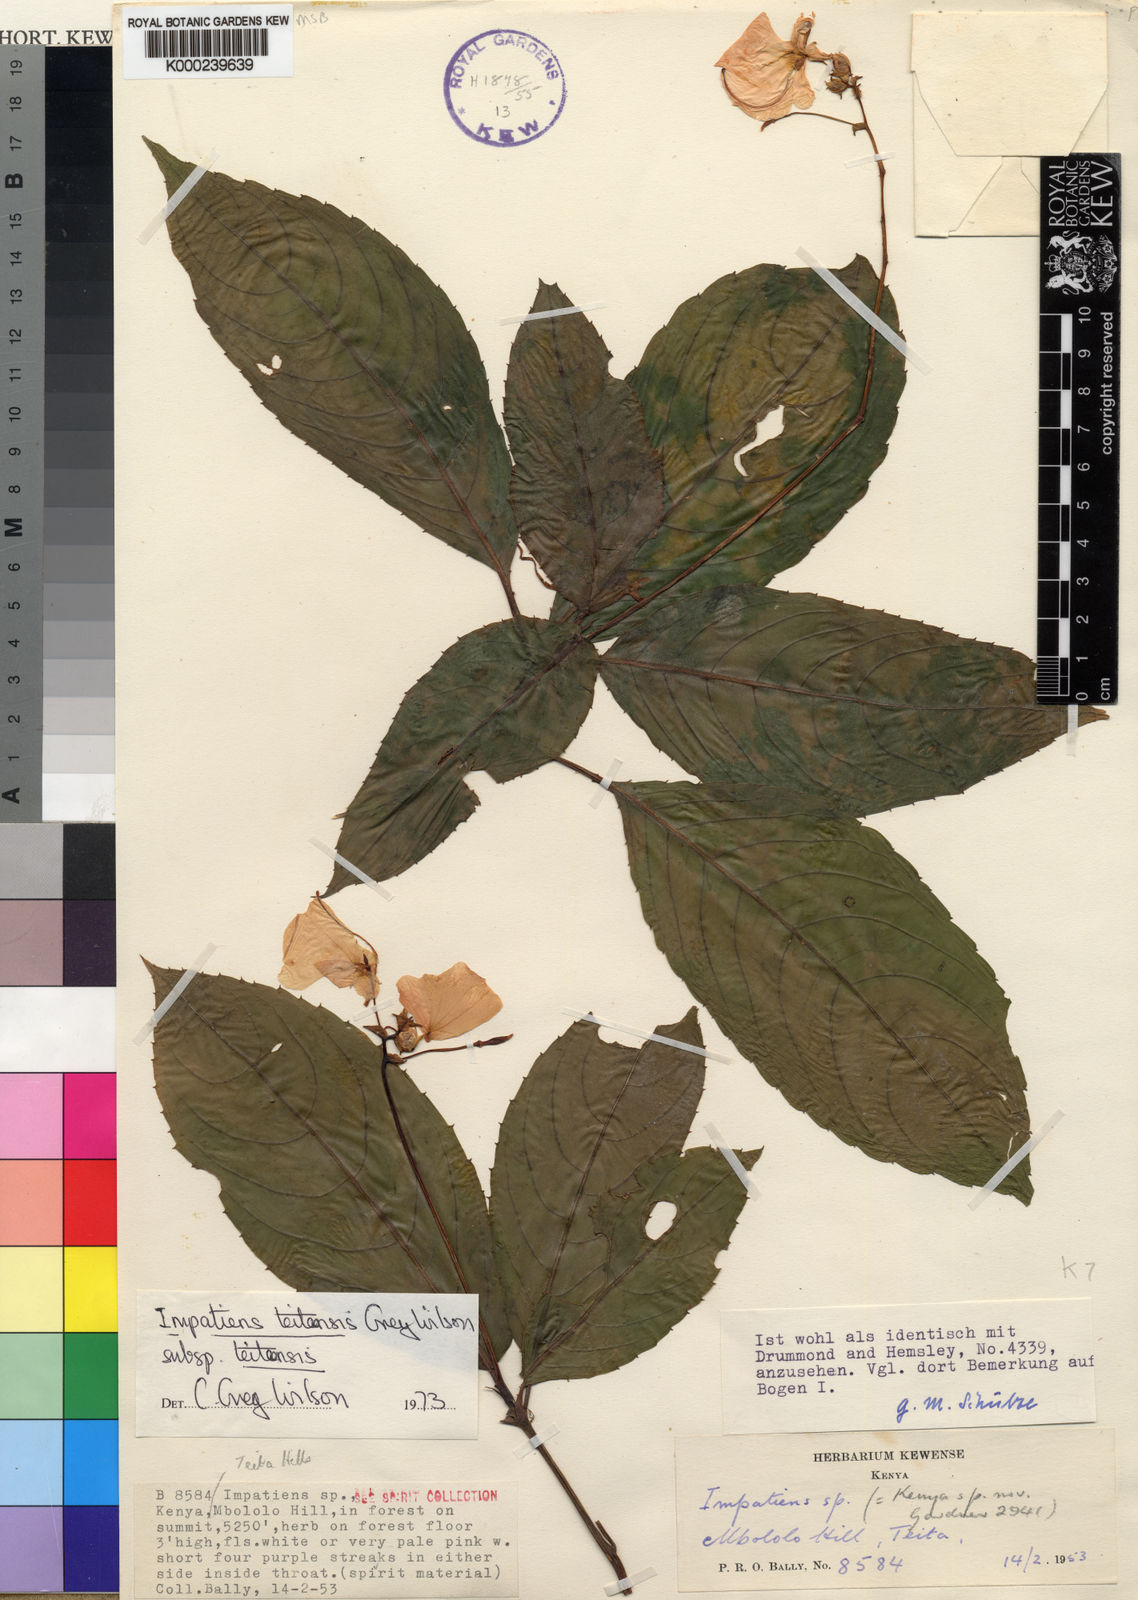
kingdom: Plantae
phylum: Tracheophyta
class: Magnoliopsida
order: Ericales
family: Balsaminaceae
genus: Impatiens
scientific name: Impatiens teitensis
